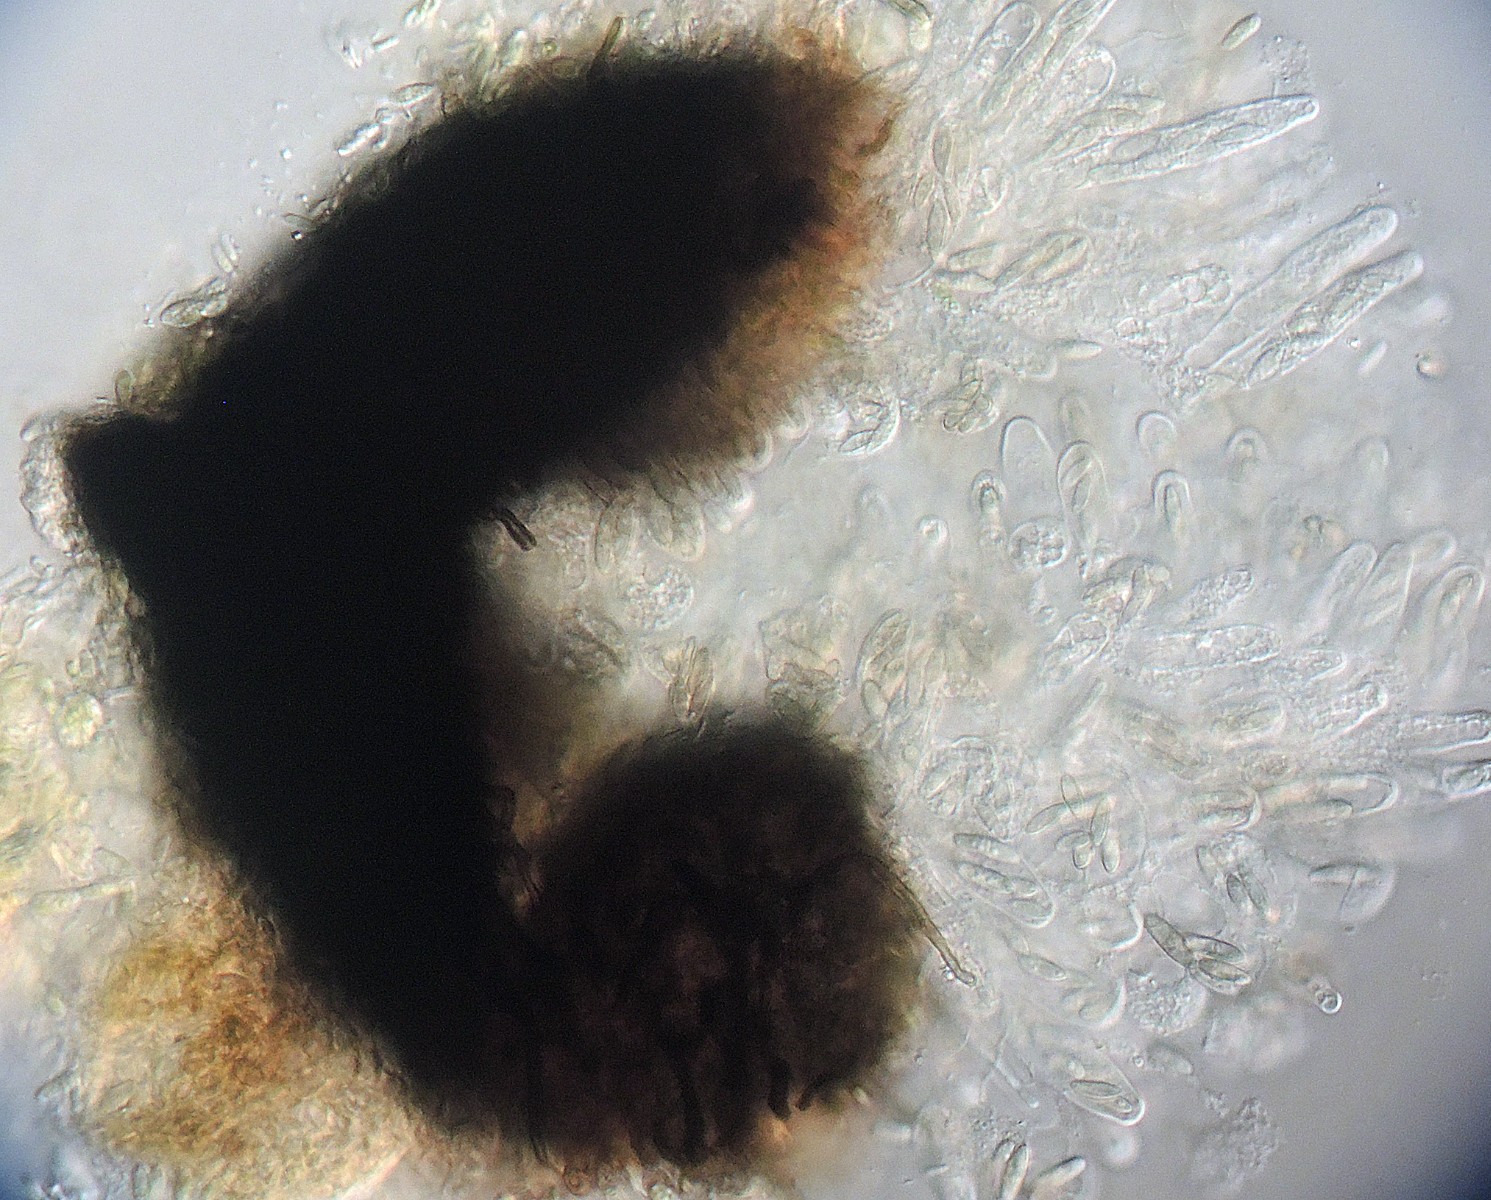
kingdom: Fungi
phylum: Ascomycota
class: Eurotiomycetes
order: Chaetothyriales
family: Herpotrichiellaceae
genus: Capronia
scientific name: Capronia inconspicua
